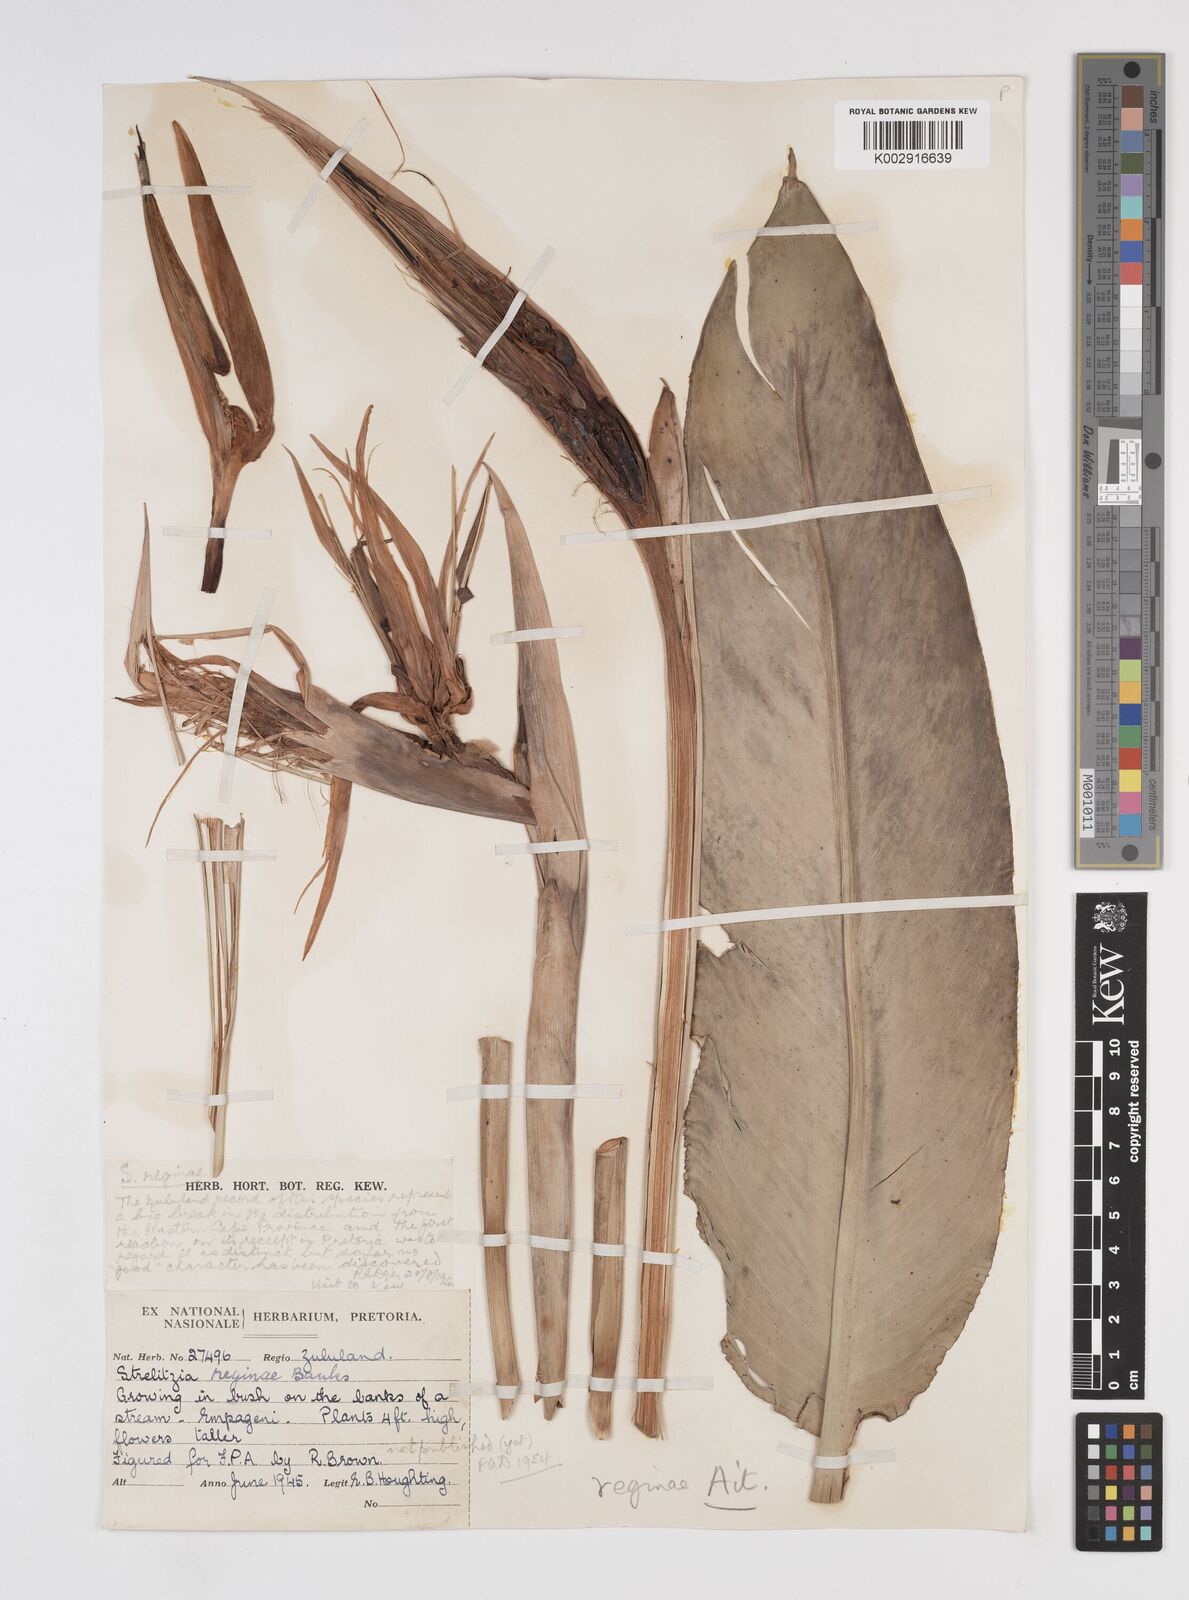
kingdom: Plantae
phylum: Tracheophyta
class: Liliopsida
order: Zingiberales
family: Strelitziaceae
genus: Strelitzia
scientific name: Strelitzia reginae
